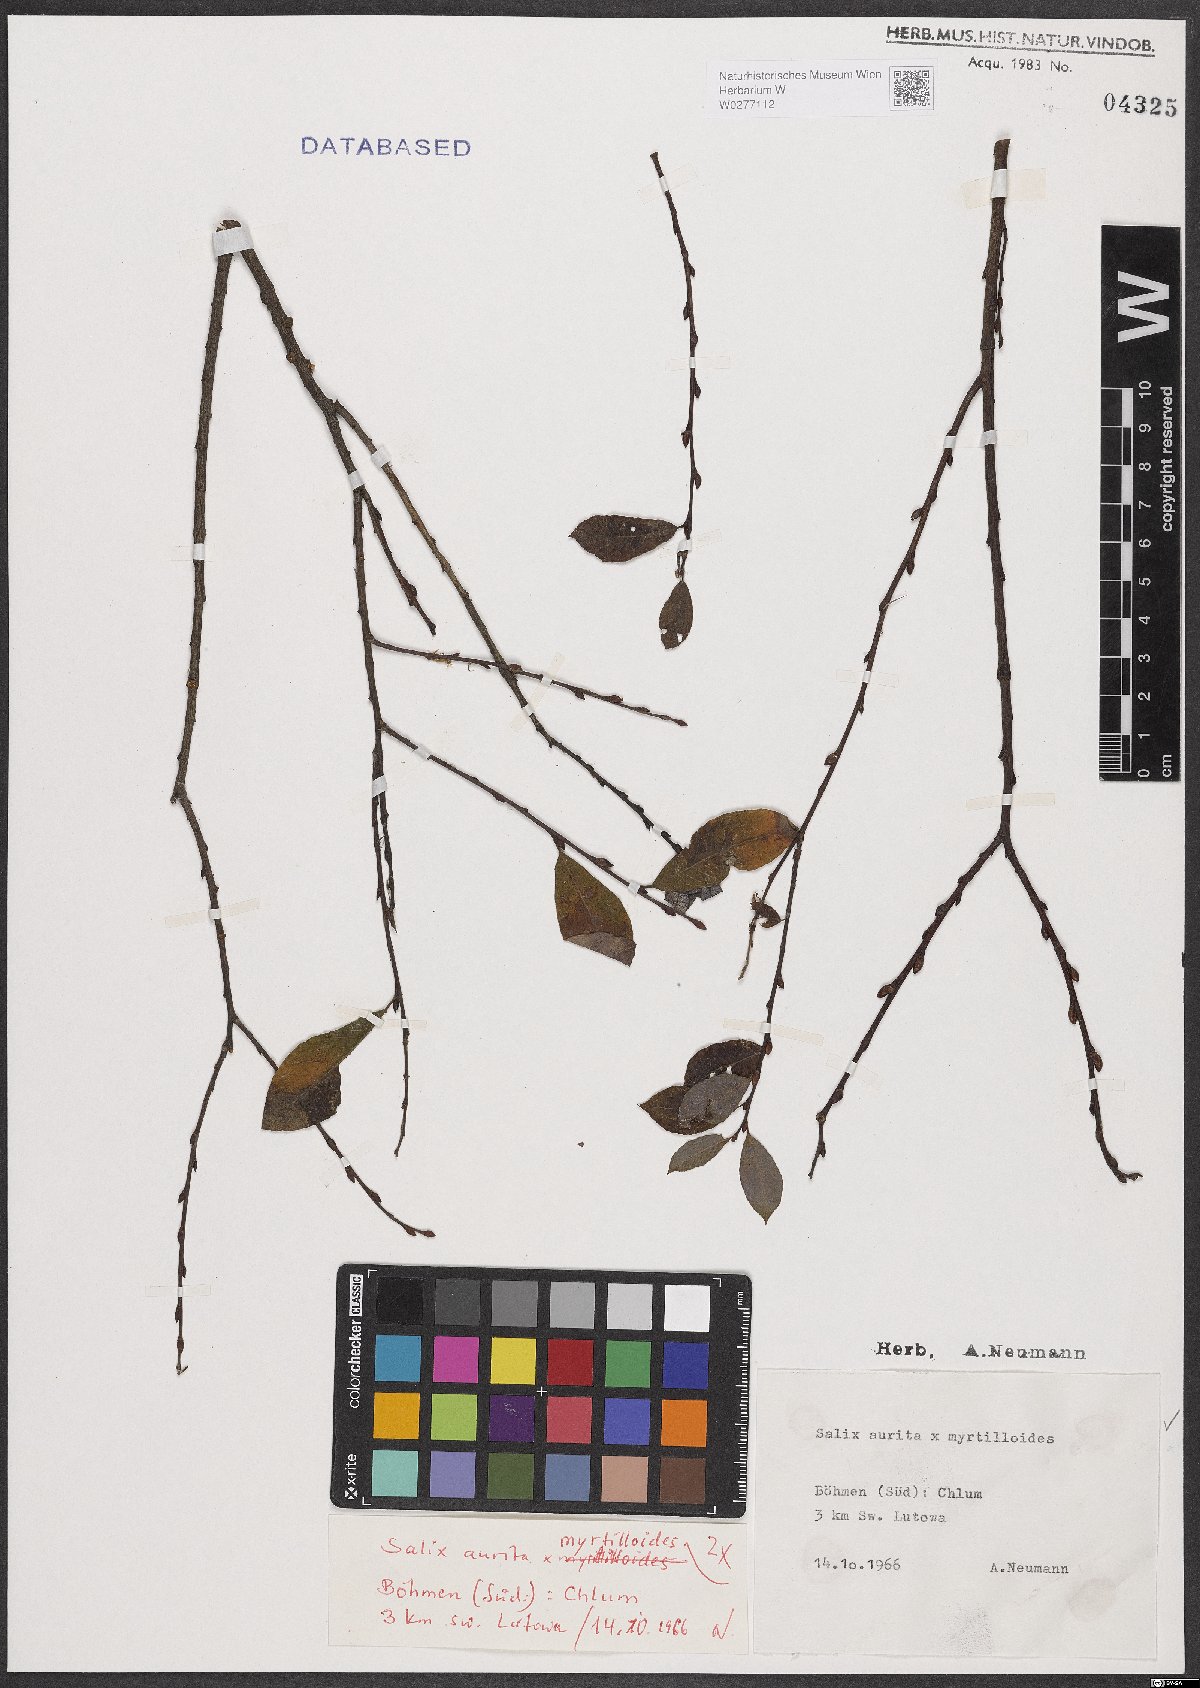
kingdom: Plantae
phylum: Tracheophyta
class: Magnoliopsida
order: Malpighiales
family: Salicaceae
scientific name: Salicaceae
